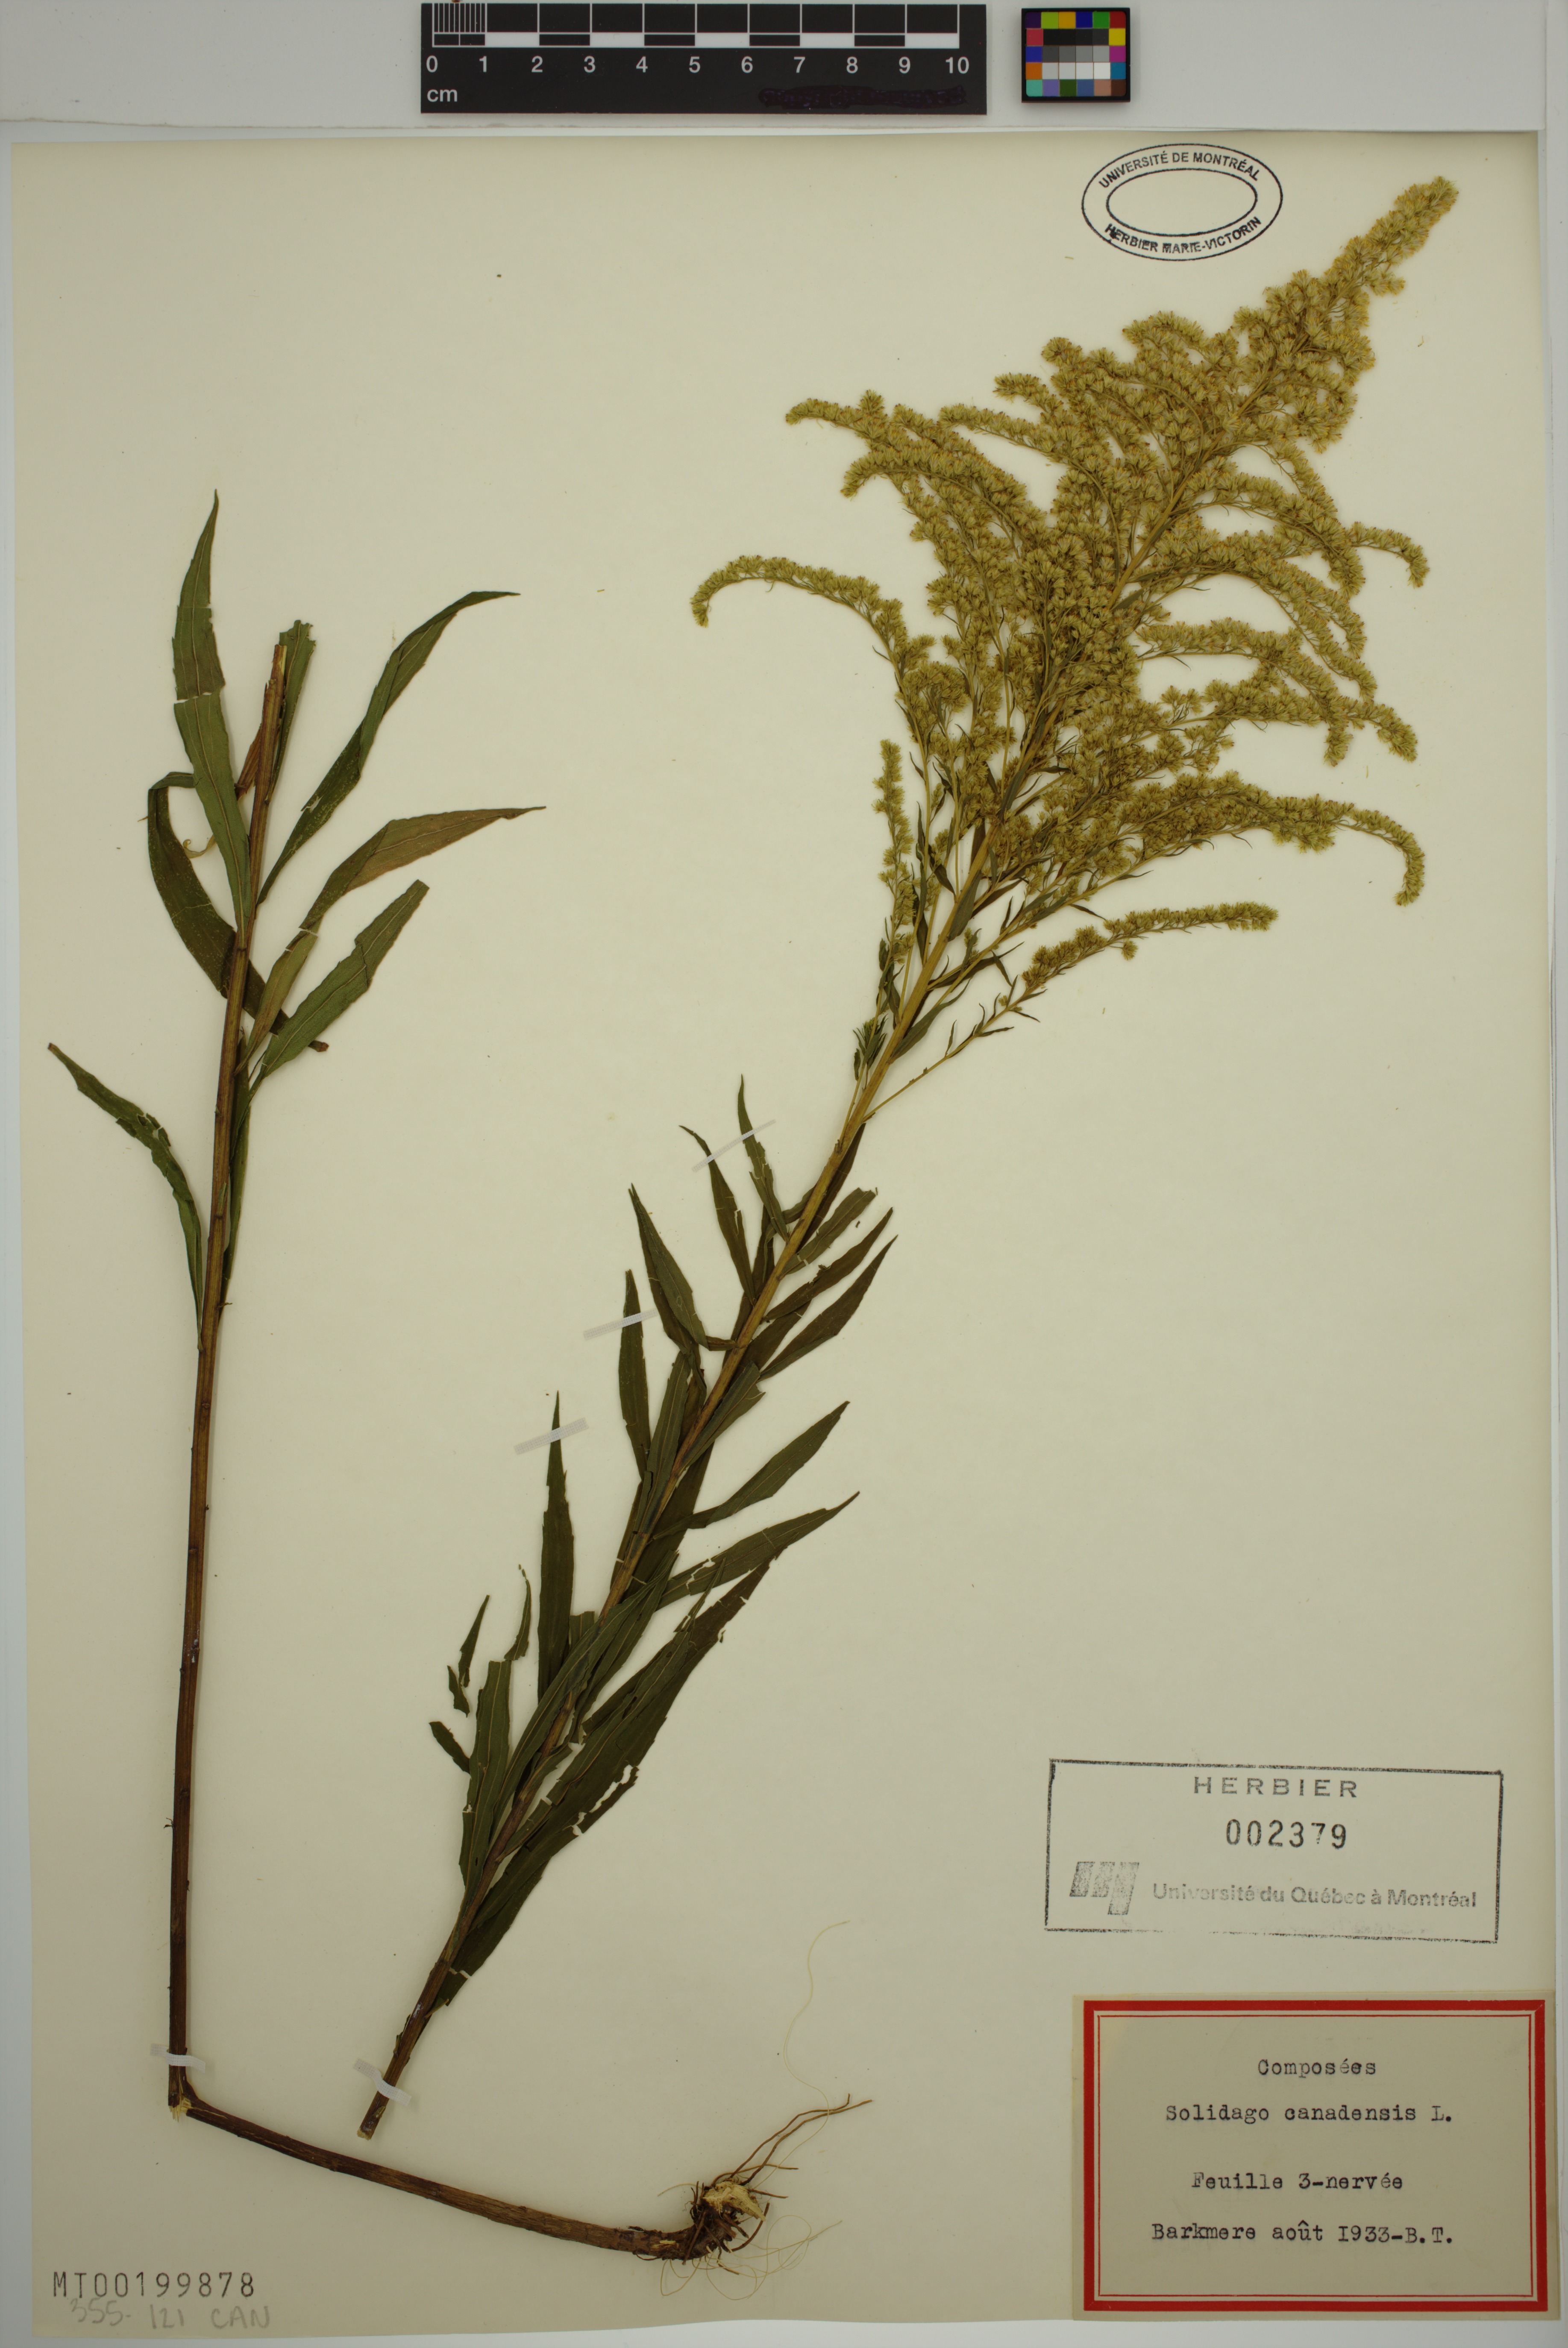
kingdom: Plantae
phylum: Tracheophyta
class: Magnoliopsida
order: Asterales
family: Asteraceae
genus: Solidago
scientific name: Solidago canadensis
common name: Canada goldenrod
